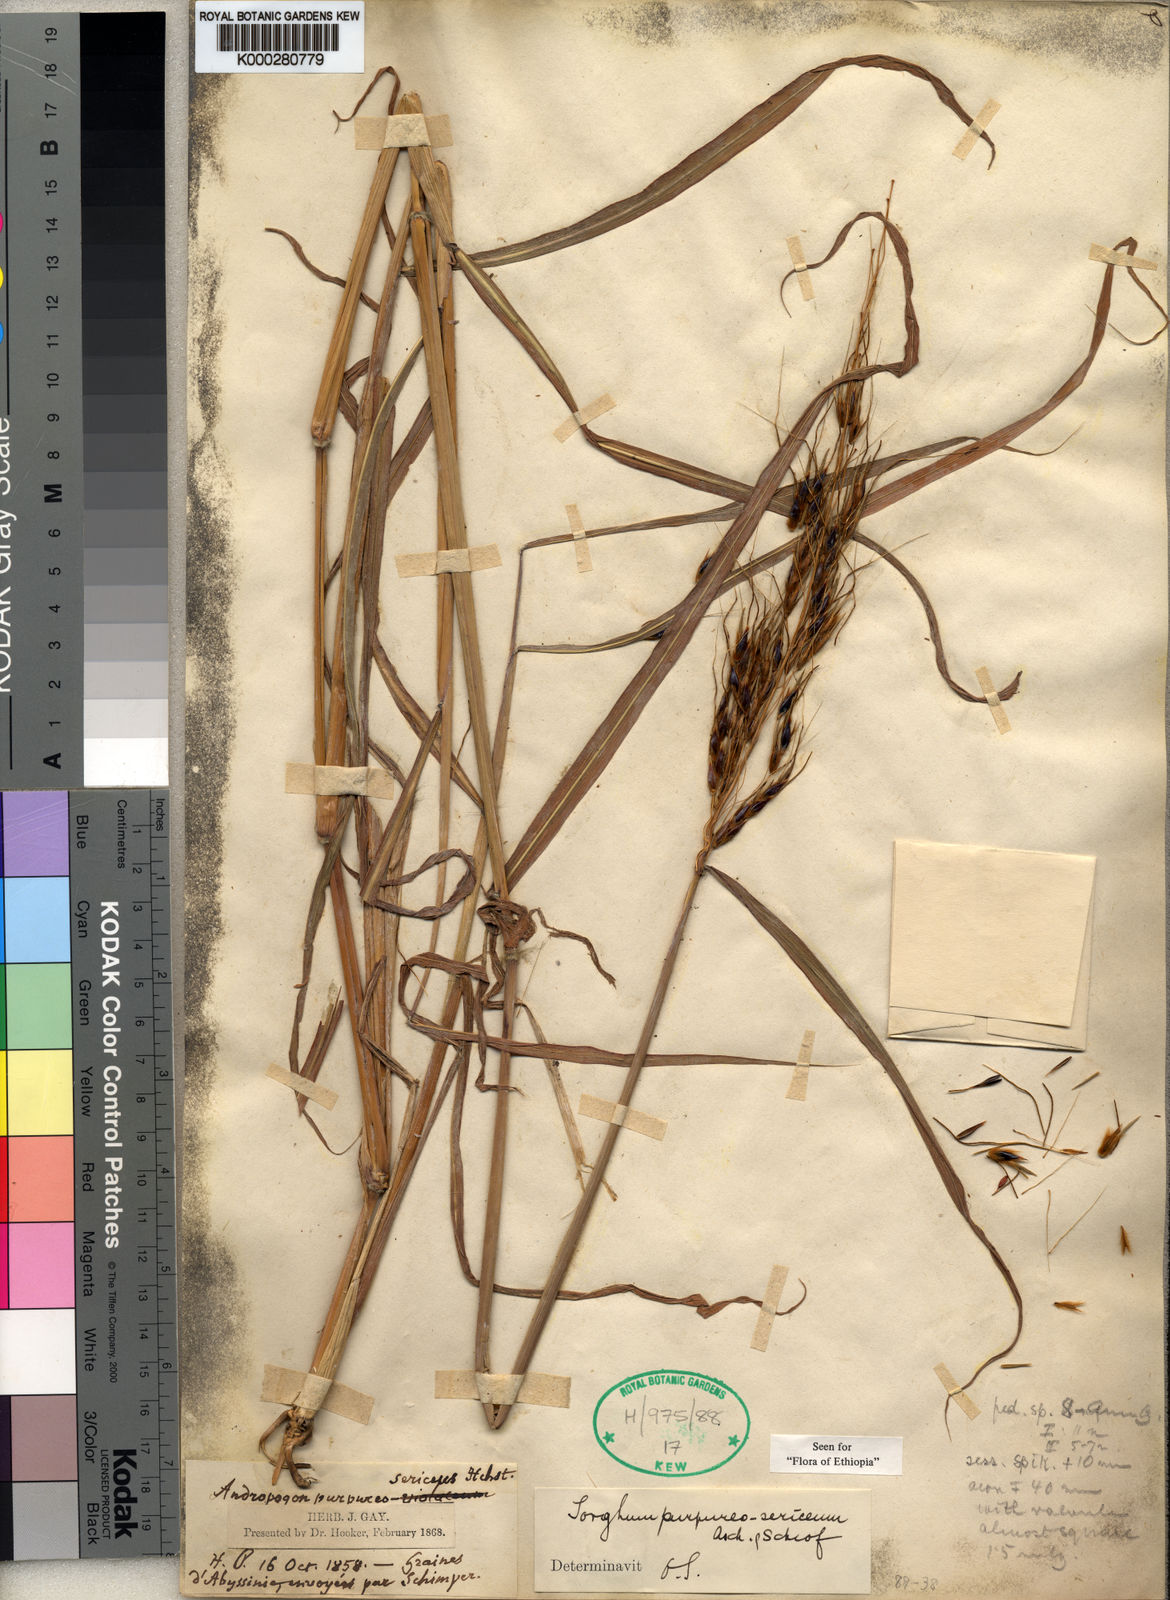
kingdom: Plantae
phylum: Tracheophyta
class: Liliopsida
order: Poales
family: Poaceae
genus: Sarga
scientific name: Sarga purpureosericea
